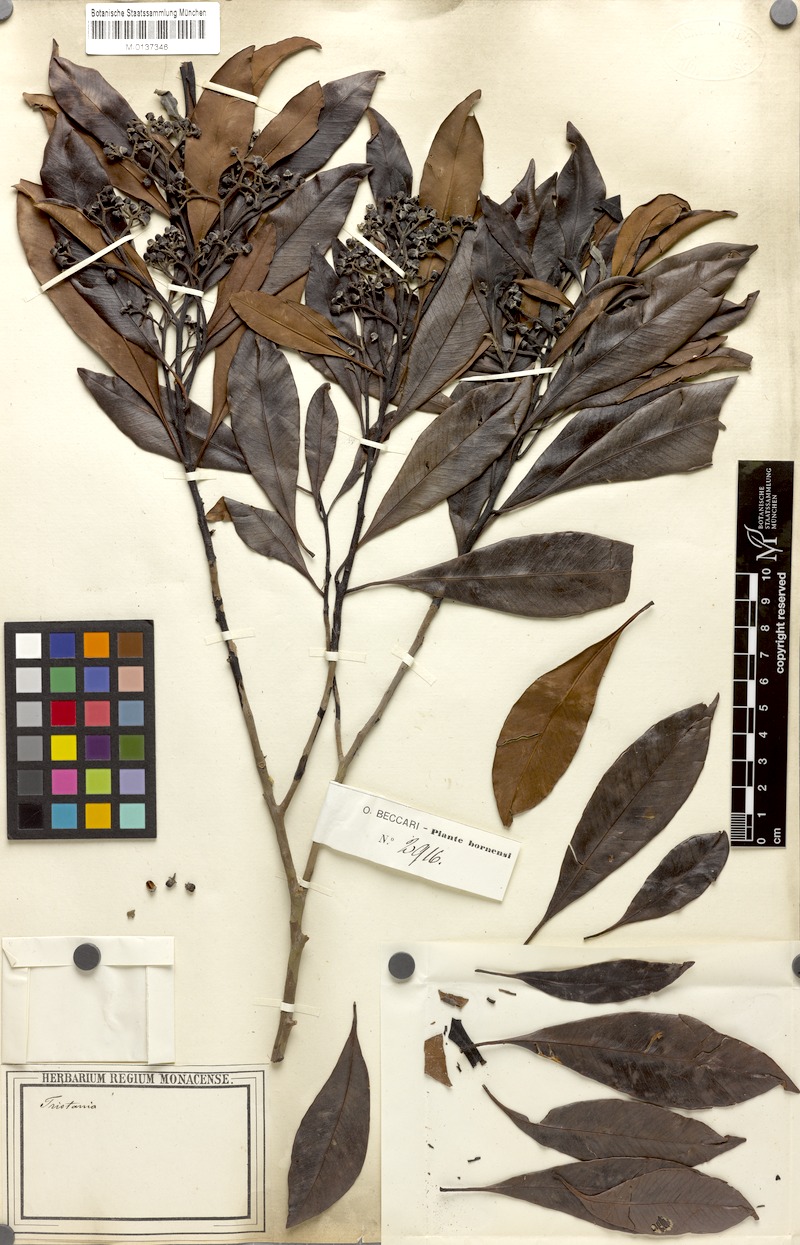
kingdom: Plantae
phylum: Tracheophyta
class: Magnoliopsida
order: Myrtales
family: Myrtaceae
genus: Tristaniopsis
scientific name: Tristaniopsis
